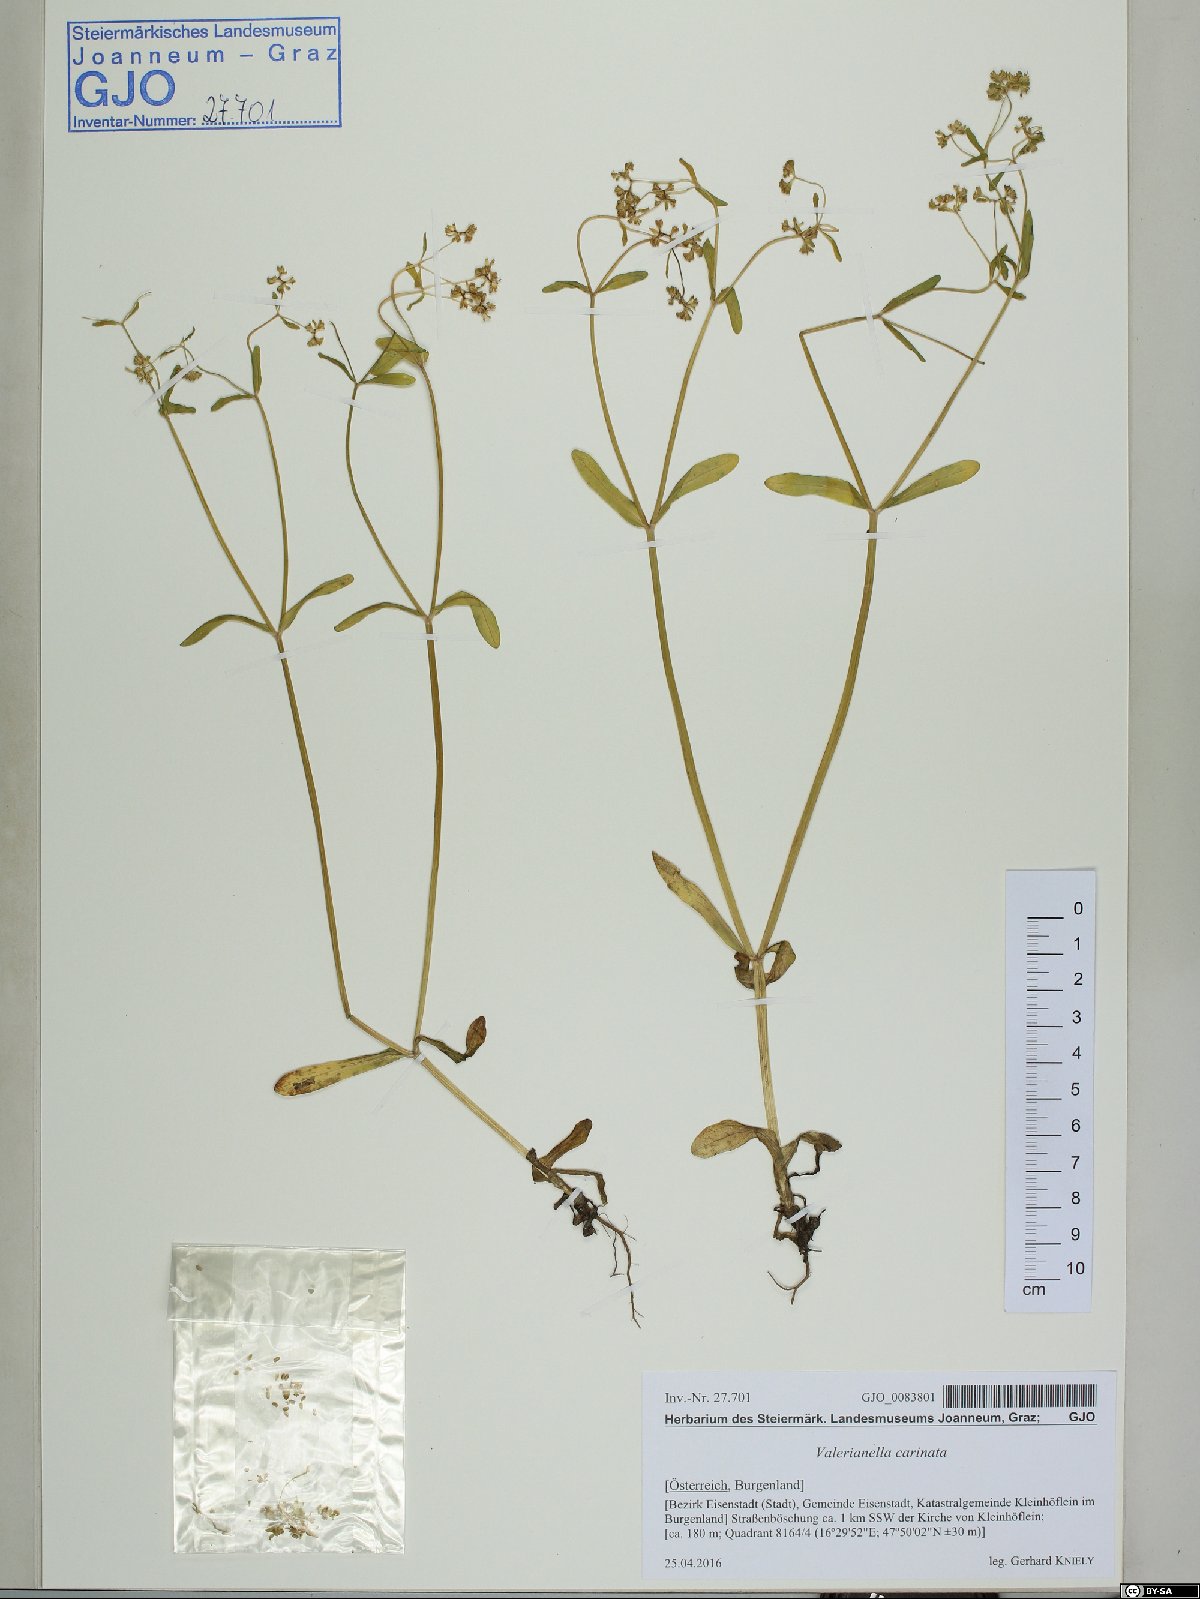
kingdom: Plantae
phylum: Tracheophyta
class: Magnoliopsida
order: Dipsacales
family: Caprifoliaceae
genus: Valerianella
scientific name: Valerianella carinata
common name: Keeled-fruited cornsalad
